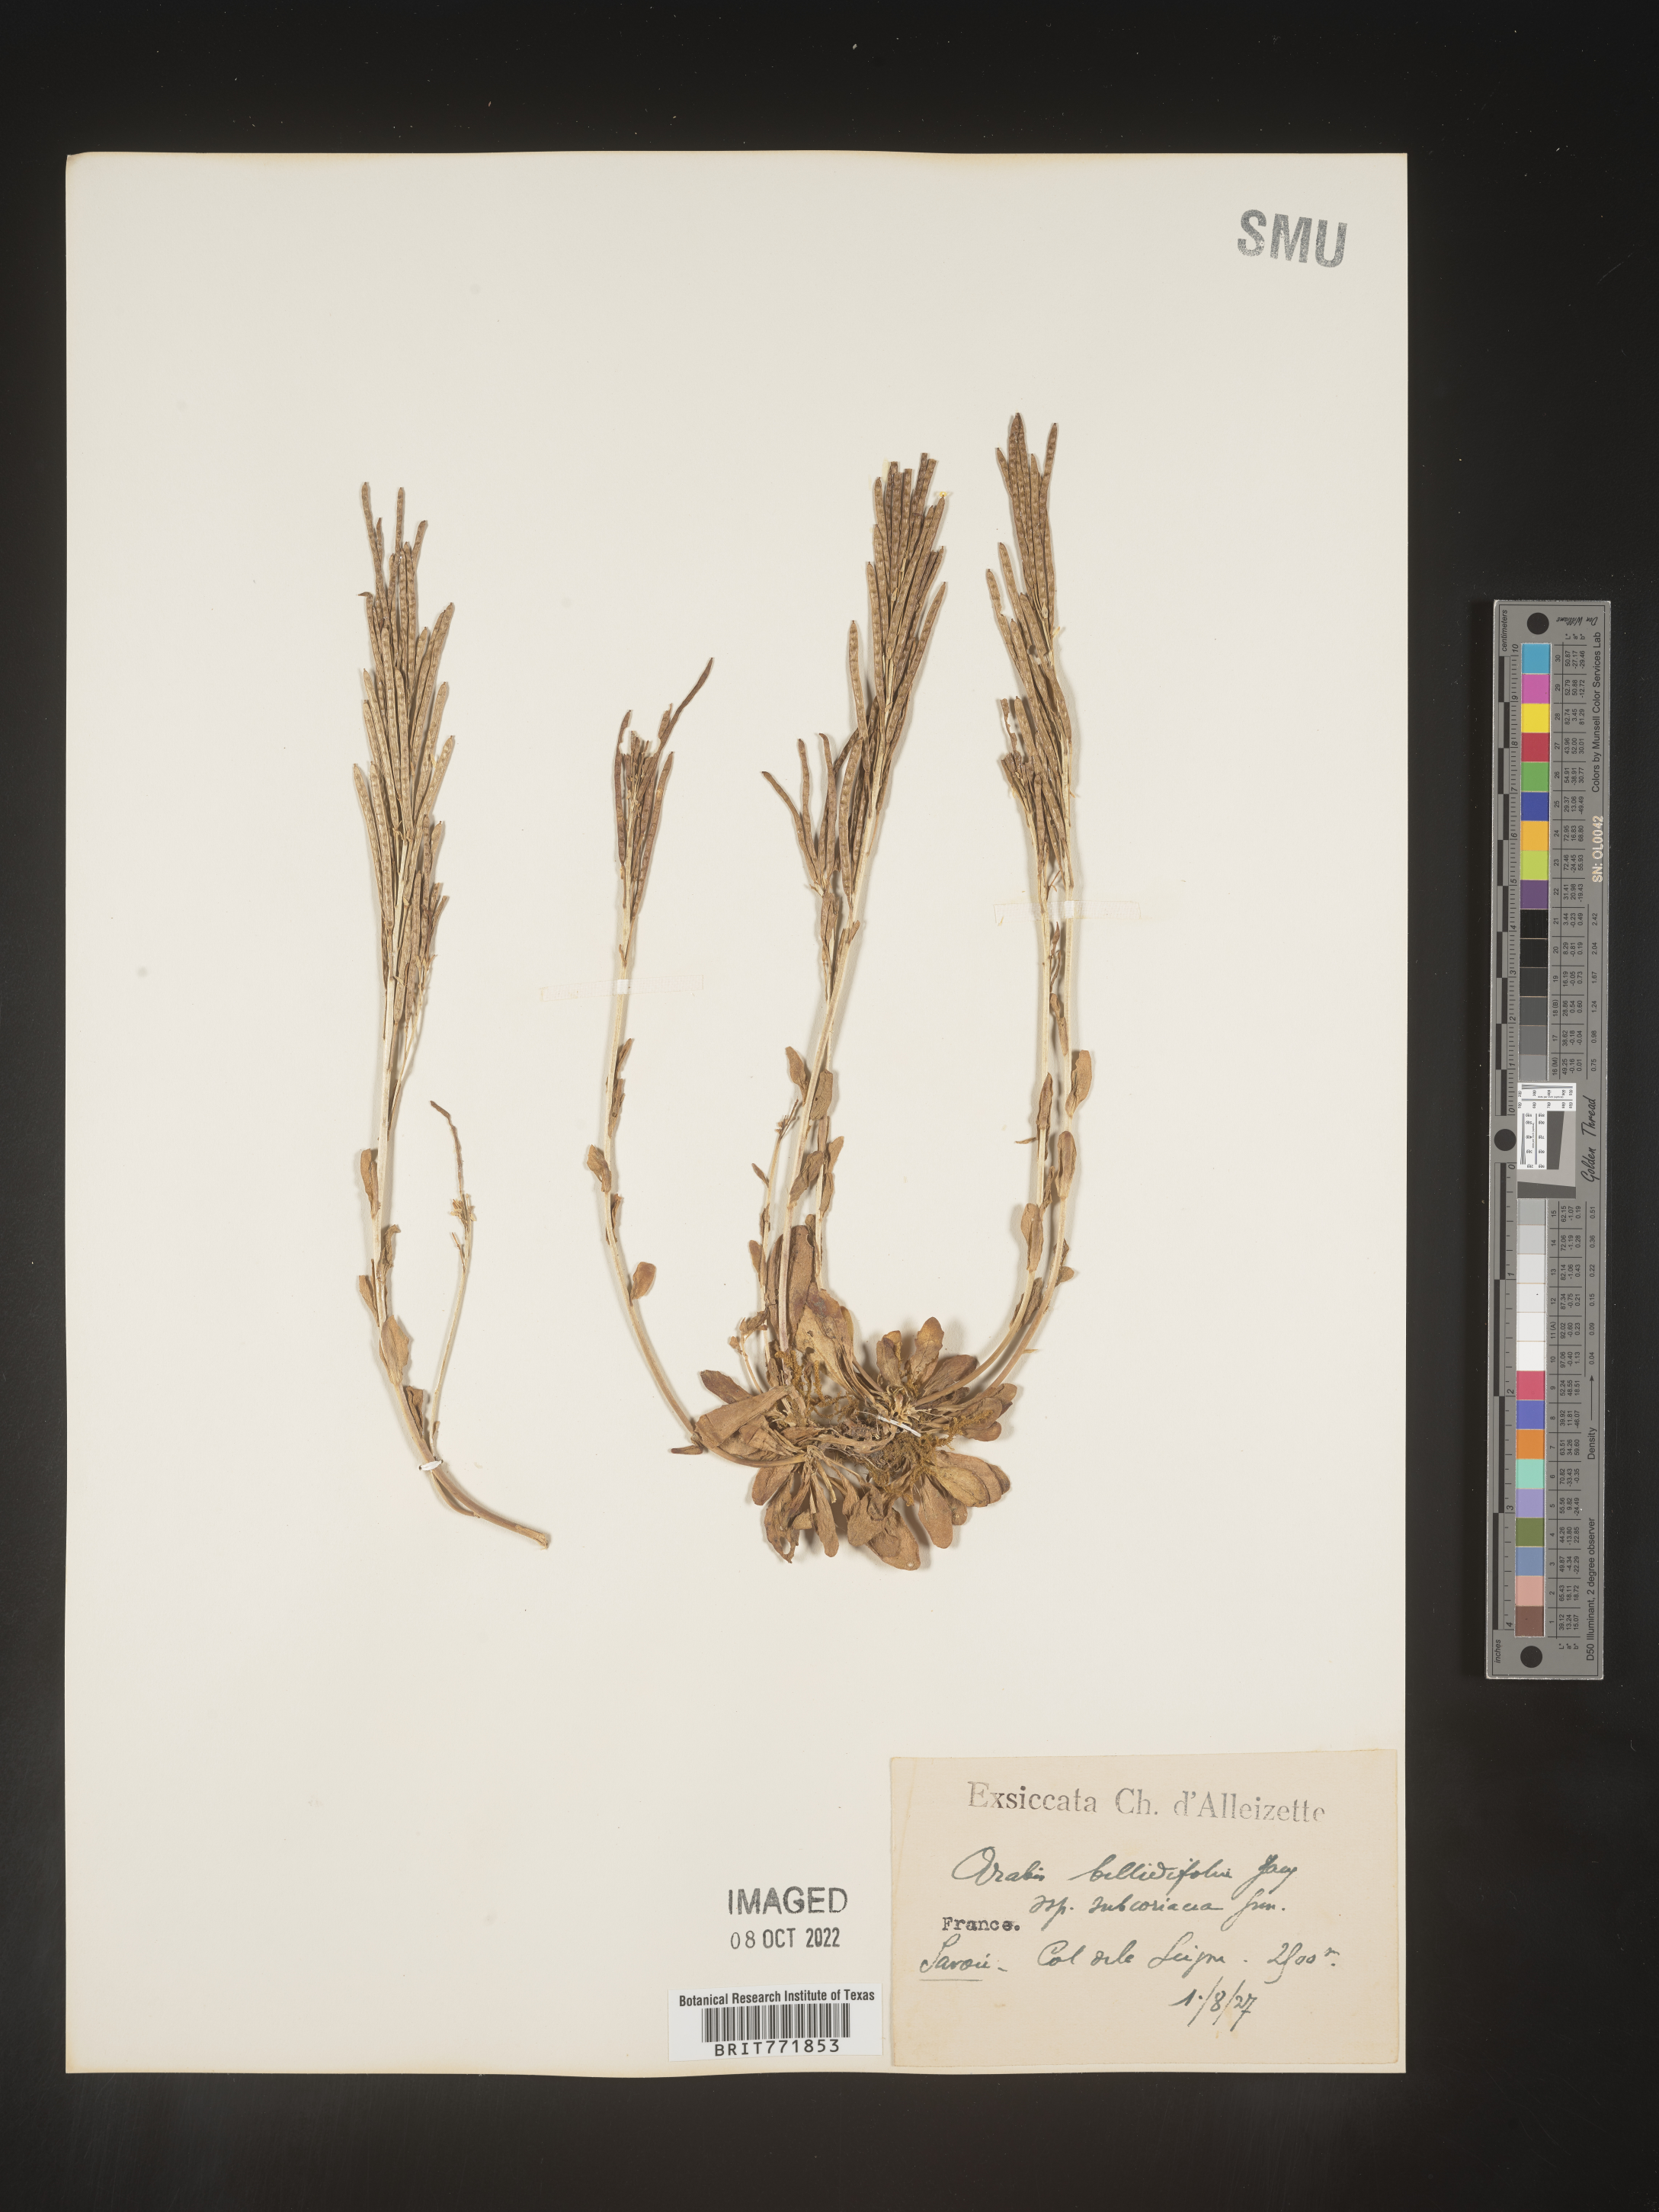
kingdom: Plantae
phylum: Tracheophyta
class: Magnoliopsida
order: Brassicales
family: Brassicaceae
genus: Arabis
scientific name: Arabis
